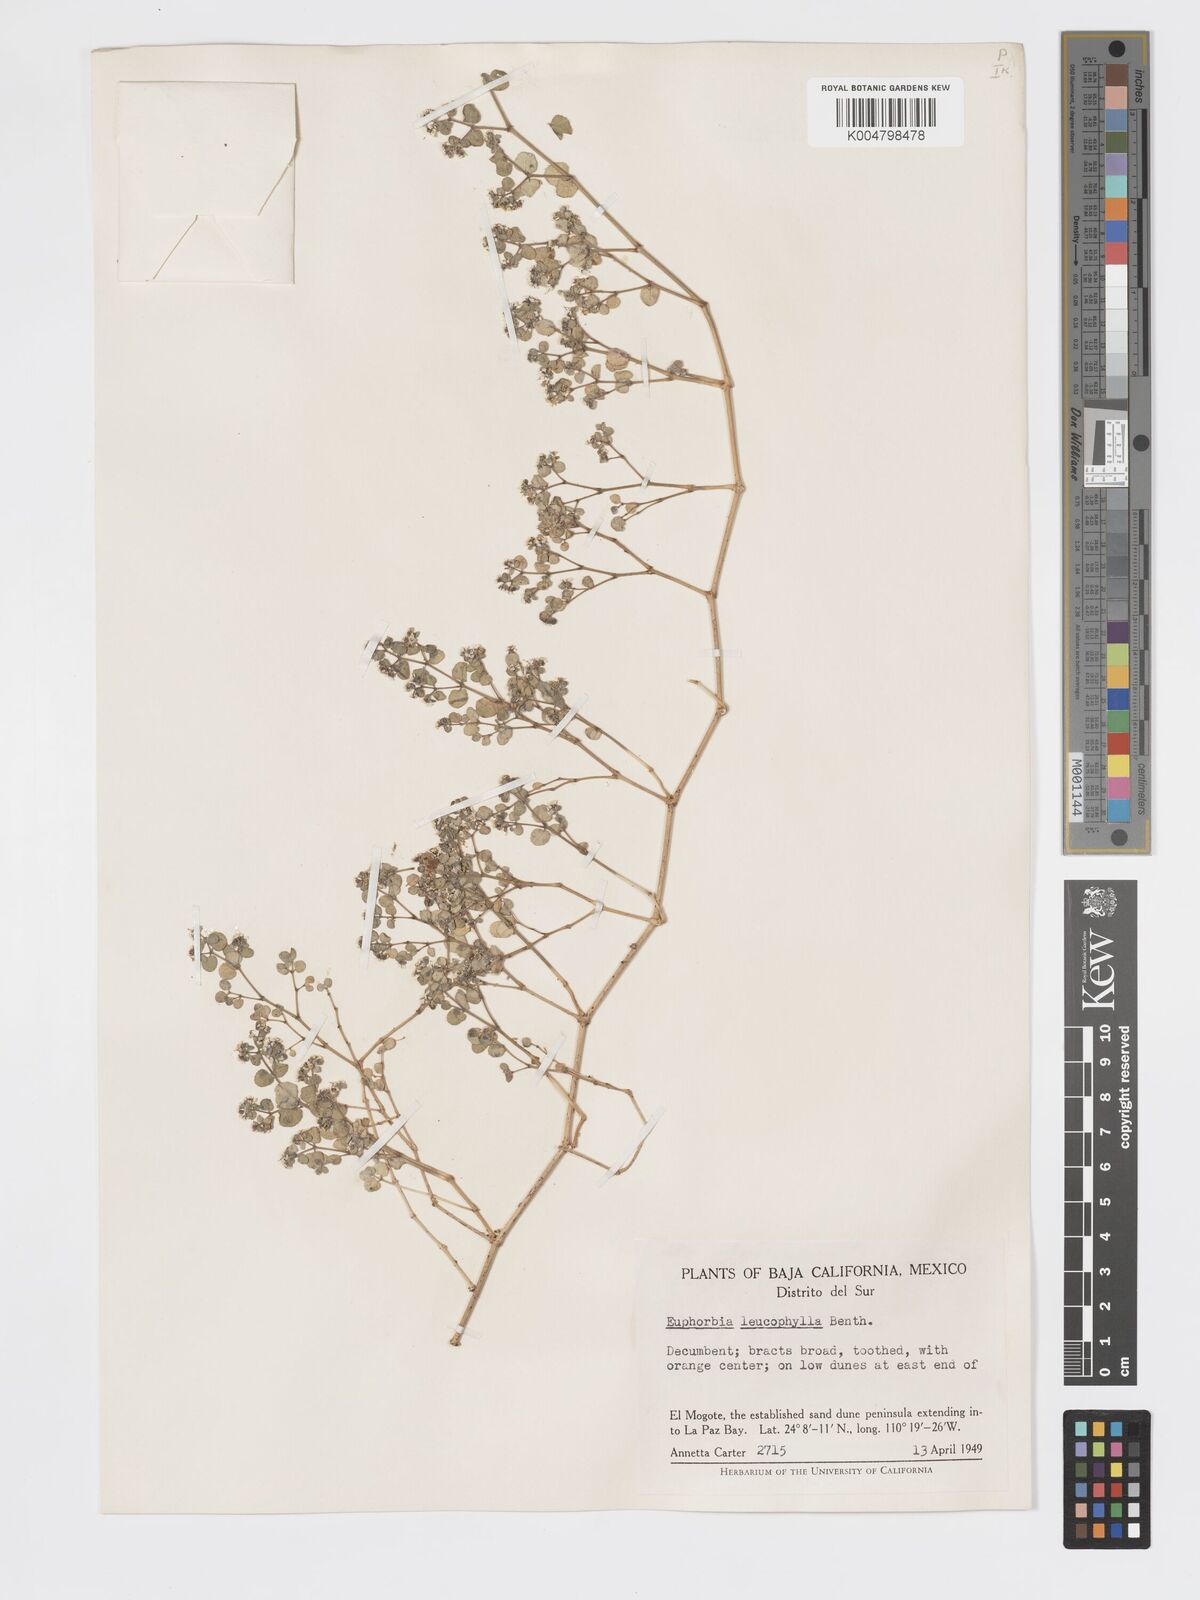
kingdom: Plantae
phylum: Tracheophyta
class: Magnoliopsida
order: Malpighiales
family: Euphorbiaceae
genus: Euphorbia
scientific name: Euphorbia leucophylla
